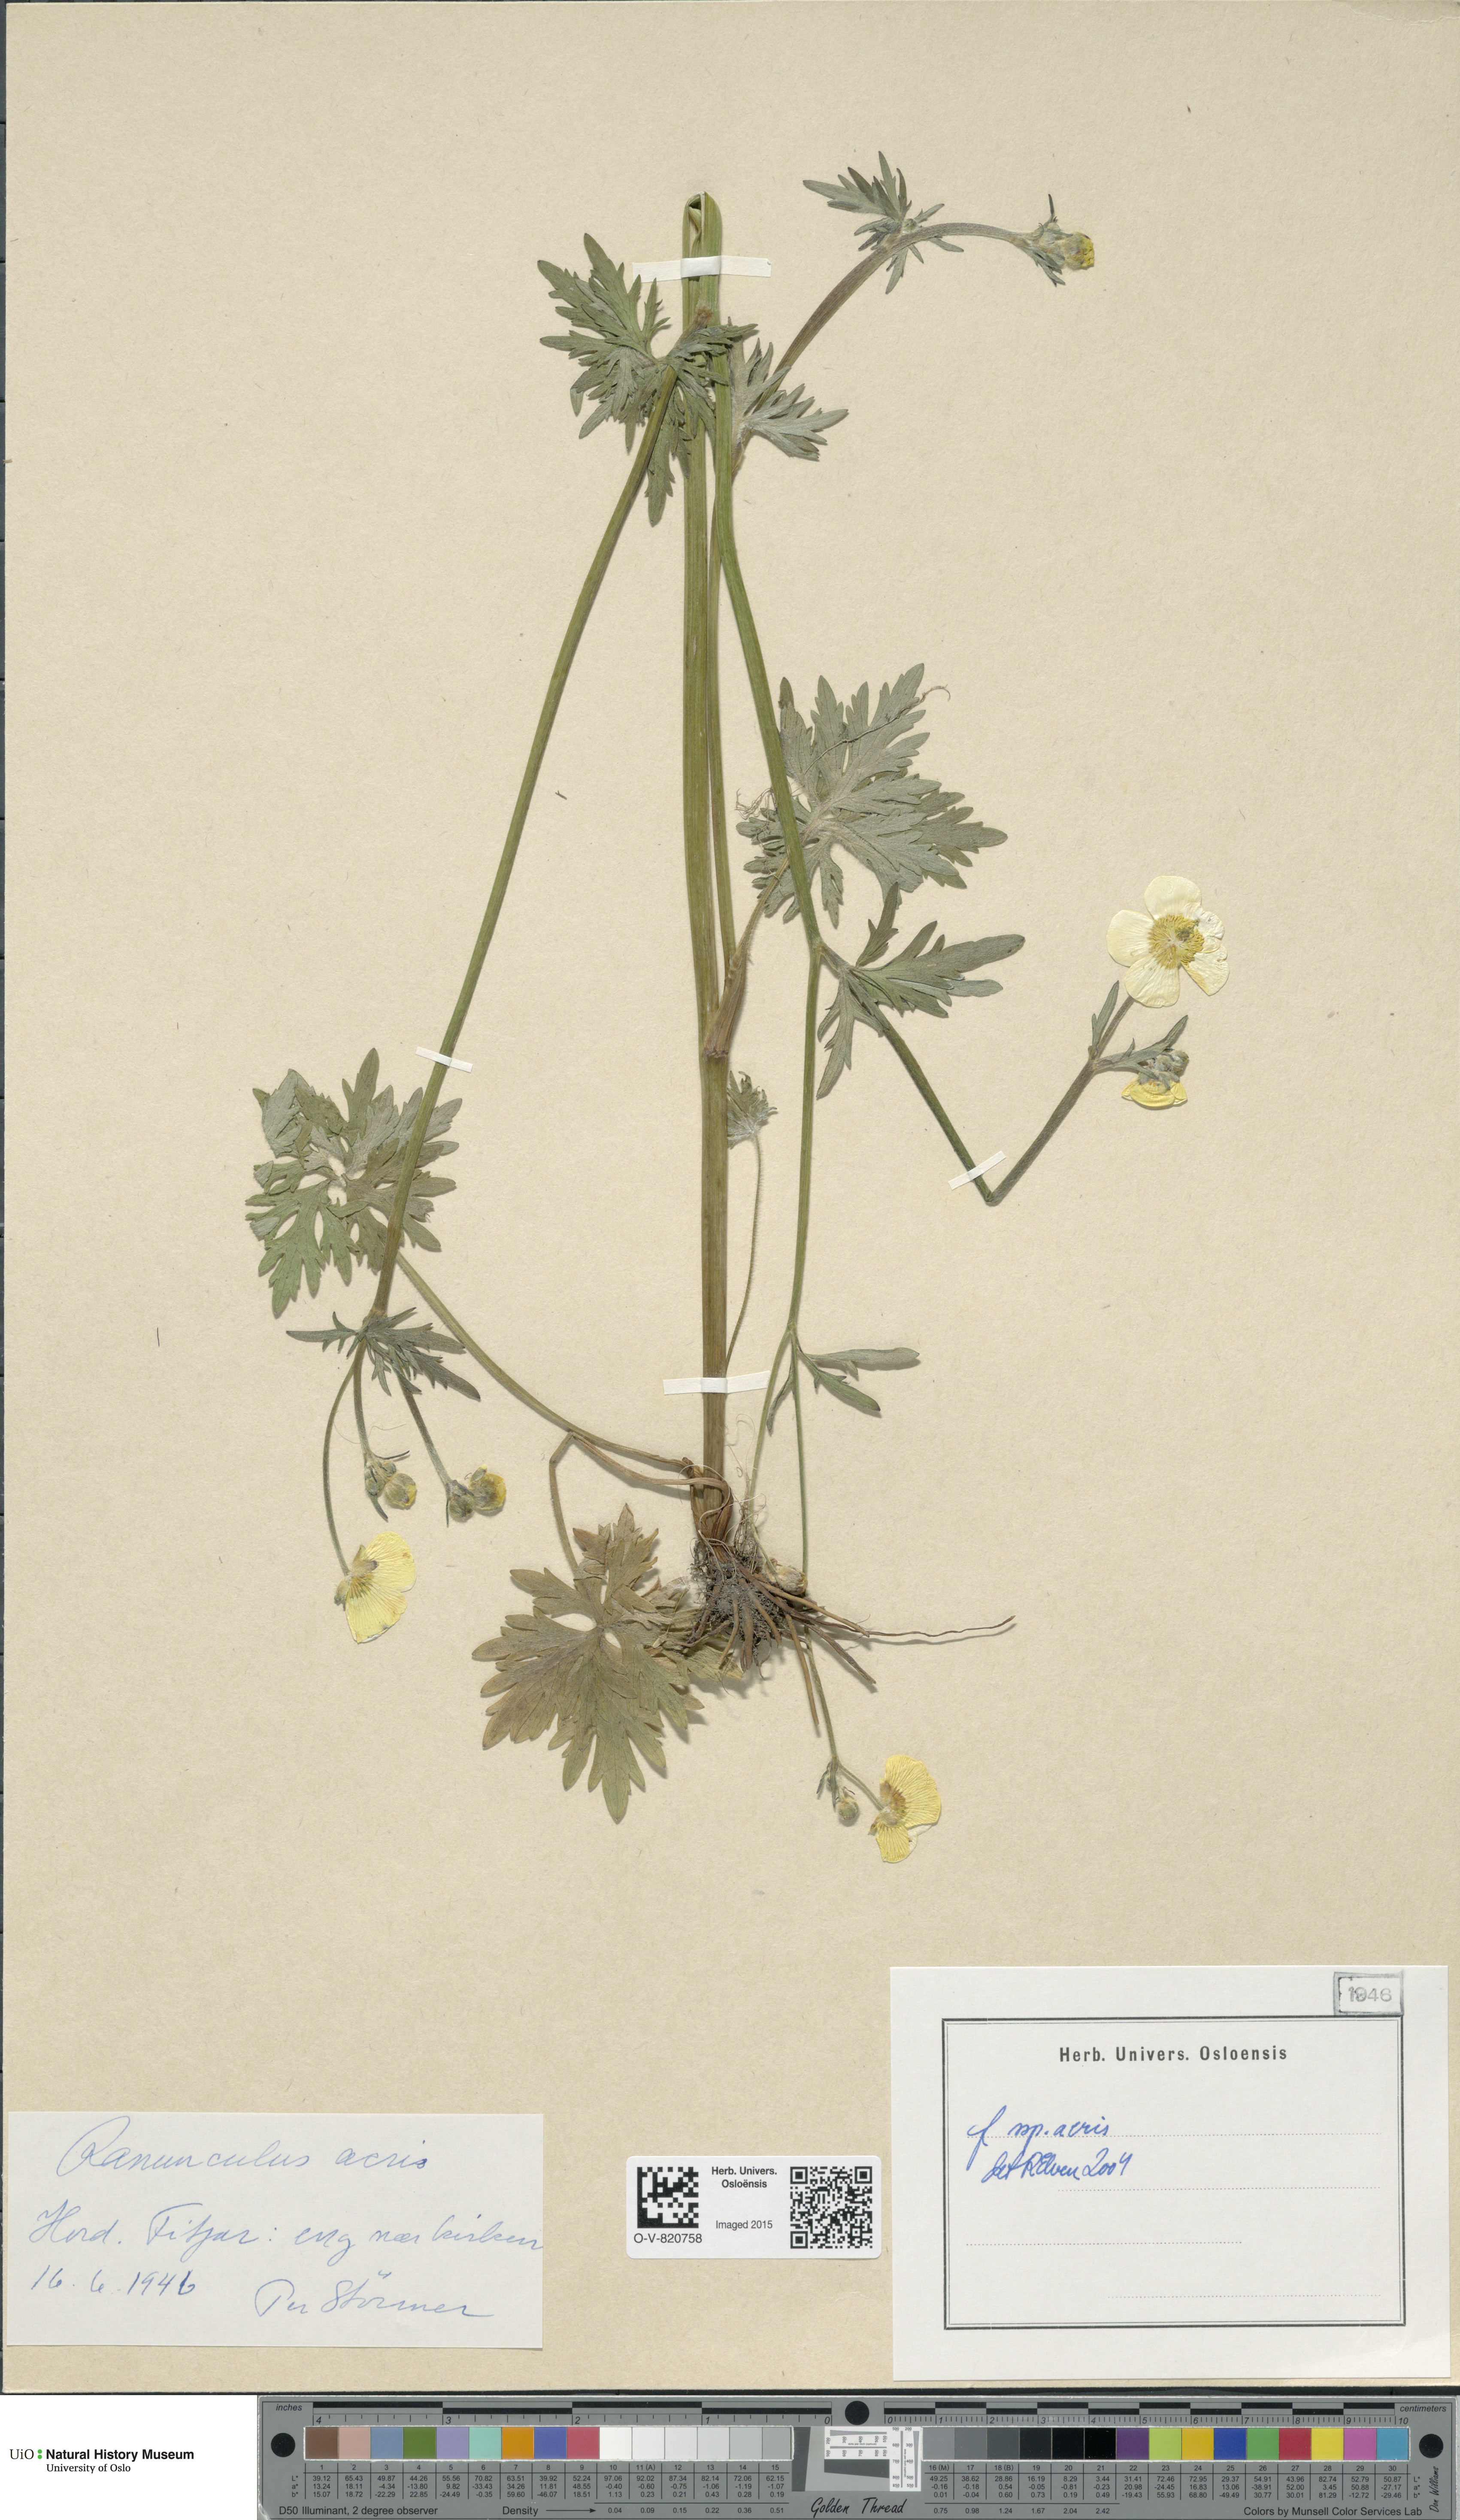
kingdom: Plantae
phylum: Tracheophyta
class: Magnoliopsida
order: Ranunculales
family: Ranunculaceae
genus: Ranunculus
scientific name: Ranunculus acris
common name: Meadow buttercup
